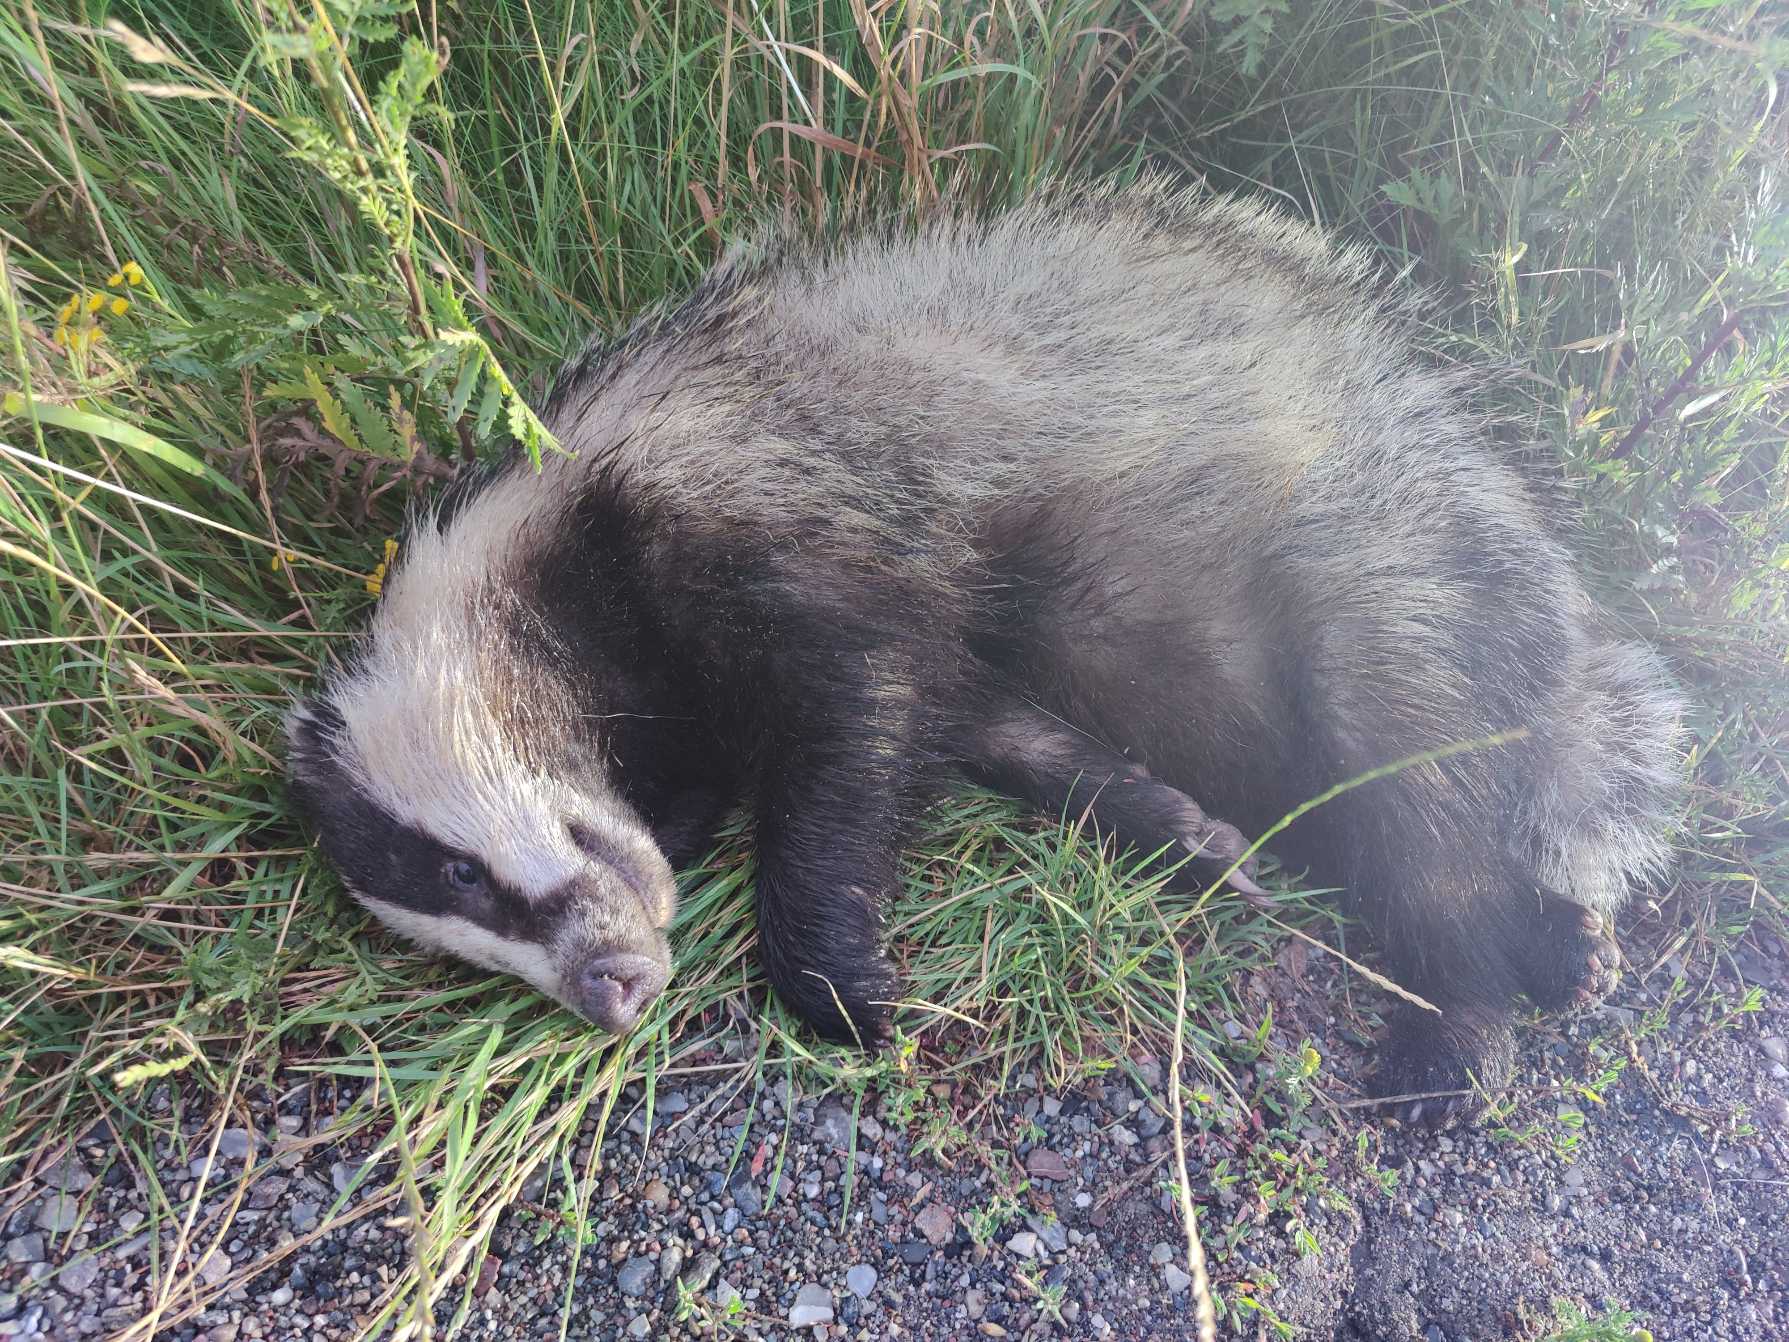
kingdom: Animalia
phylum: Chordata
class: Mammalia
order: Carnivora
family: Mustelidae
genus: Meles
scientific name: Meles meles
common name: Grævling
